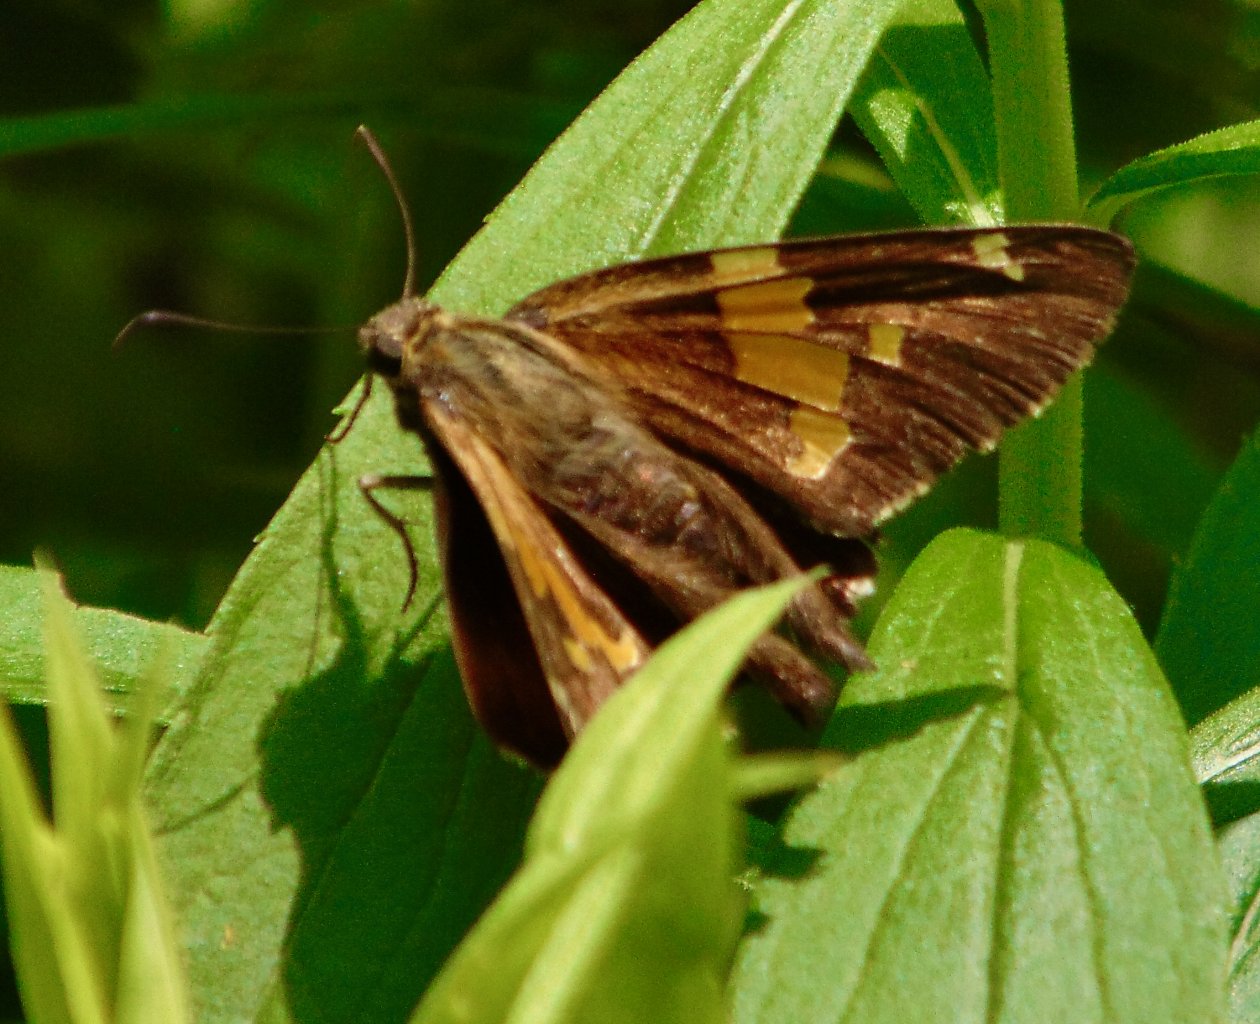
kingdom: Animalia
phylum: Arthropoda
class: Insecta
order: Lepidoptera
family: Hesperiidae
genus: Epargyreus
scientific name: Epargyreus clarus
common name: Silver-spotted Skipper
